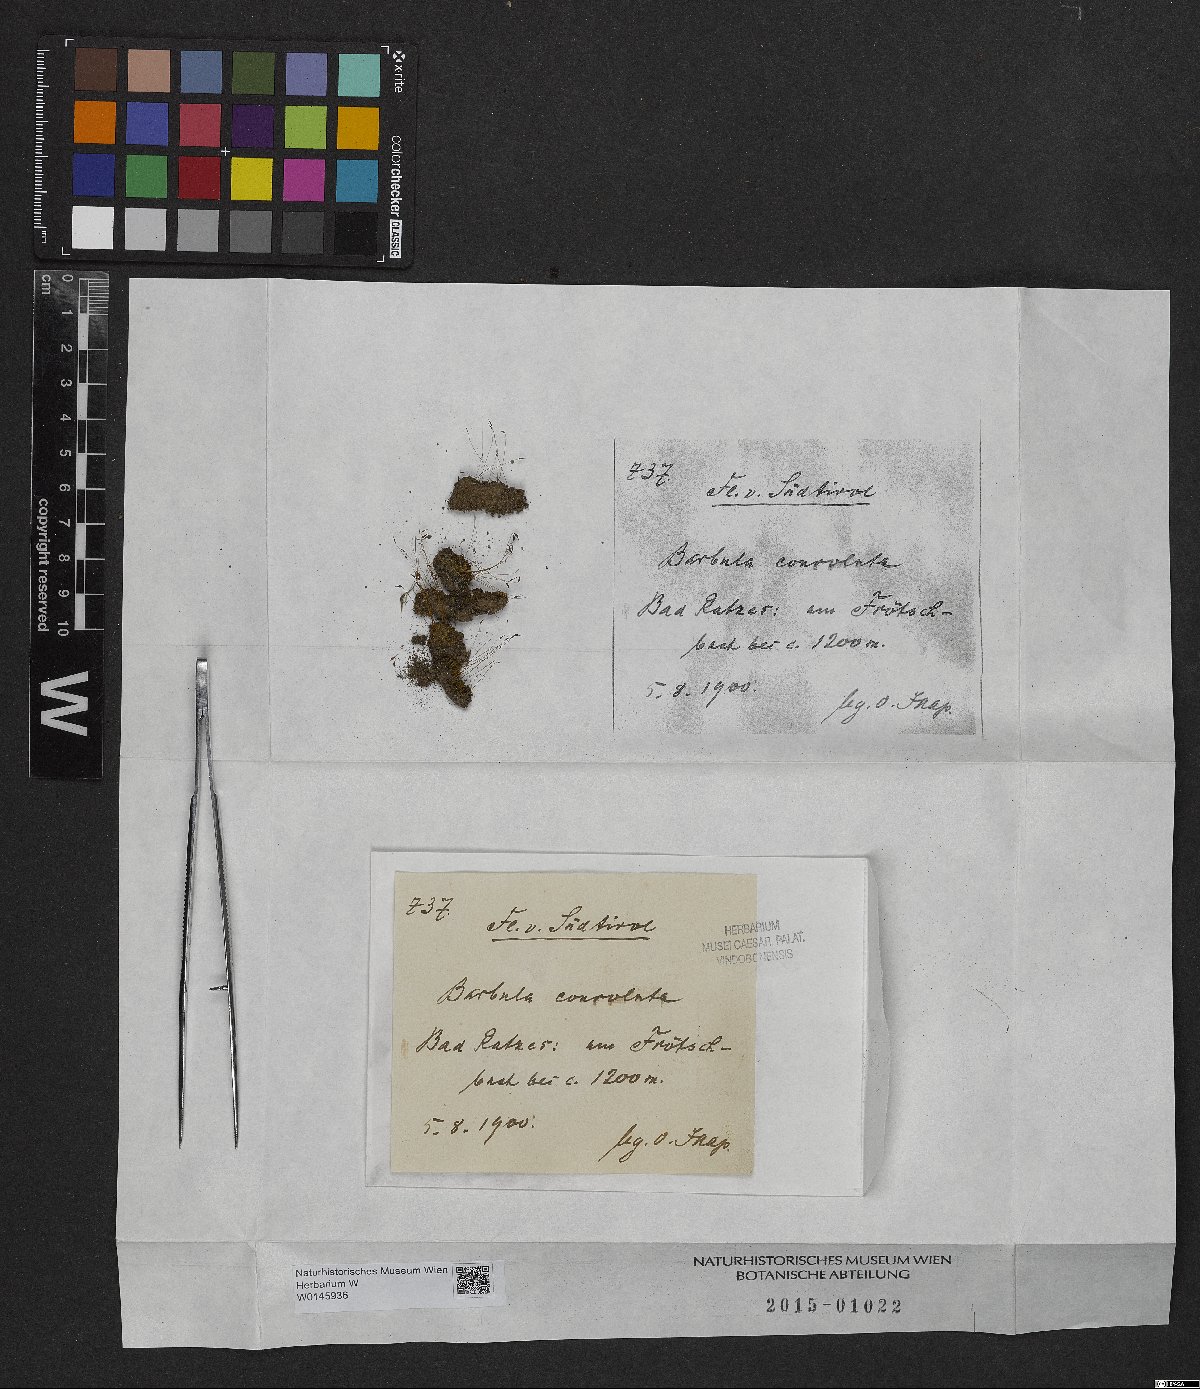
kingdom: Plantae
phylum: Bryophyta
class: Bryopsida
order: Pottiales
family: Pottiaceae
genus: Streblotrichum
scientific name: Streblotrichum convolutum
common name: Lesser bird's-claw beard-moss
